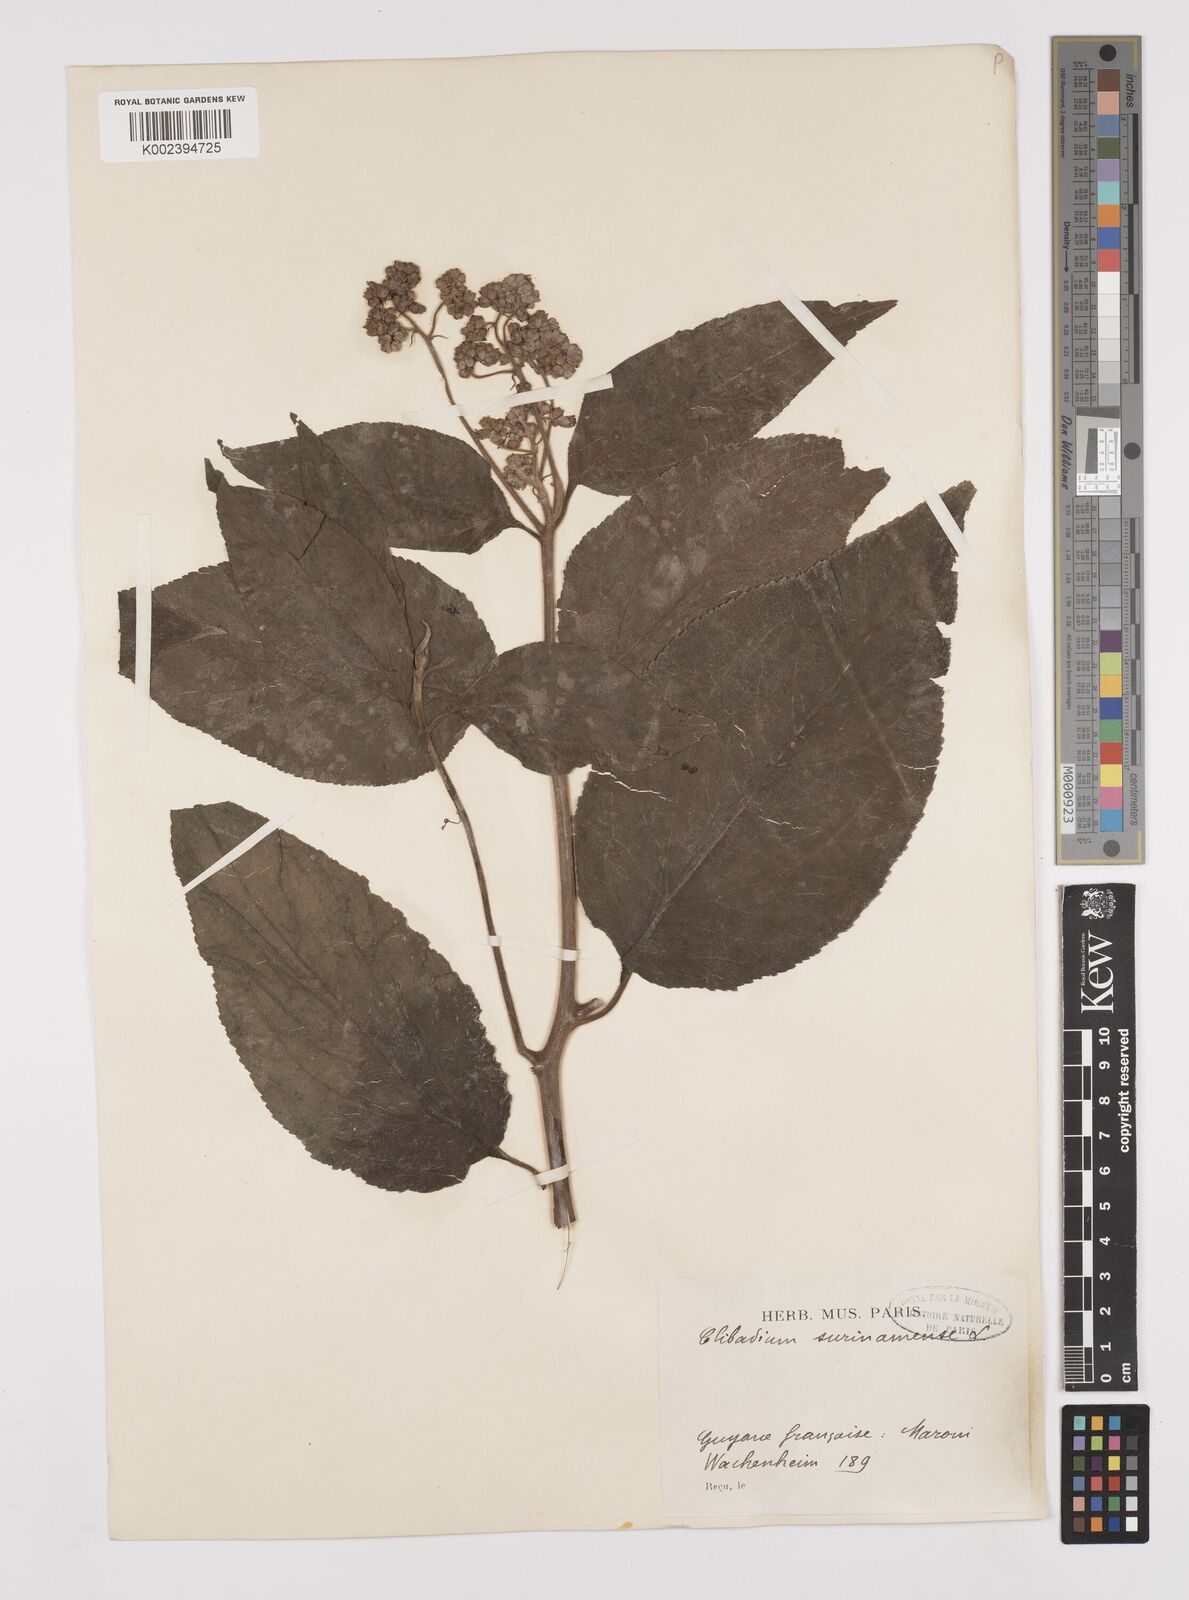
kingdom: Plantae
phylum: Tracheophyta
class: Magnoliopsida
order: Asterales
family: Asteraceae
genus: Clibadium
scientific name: Clibadium surinamense
